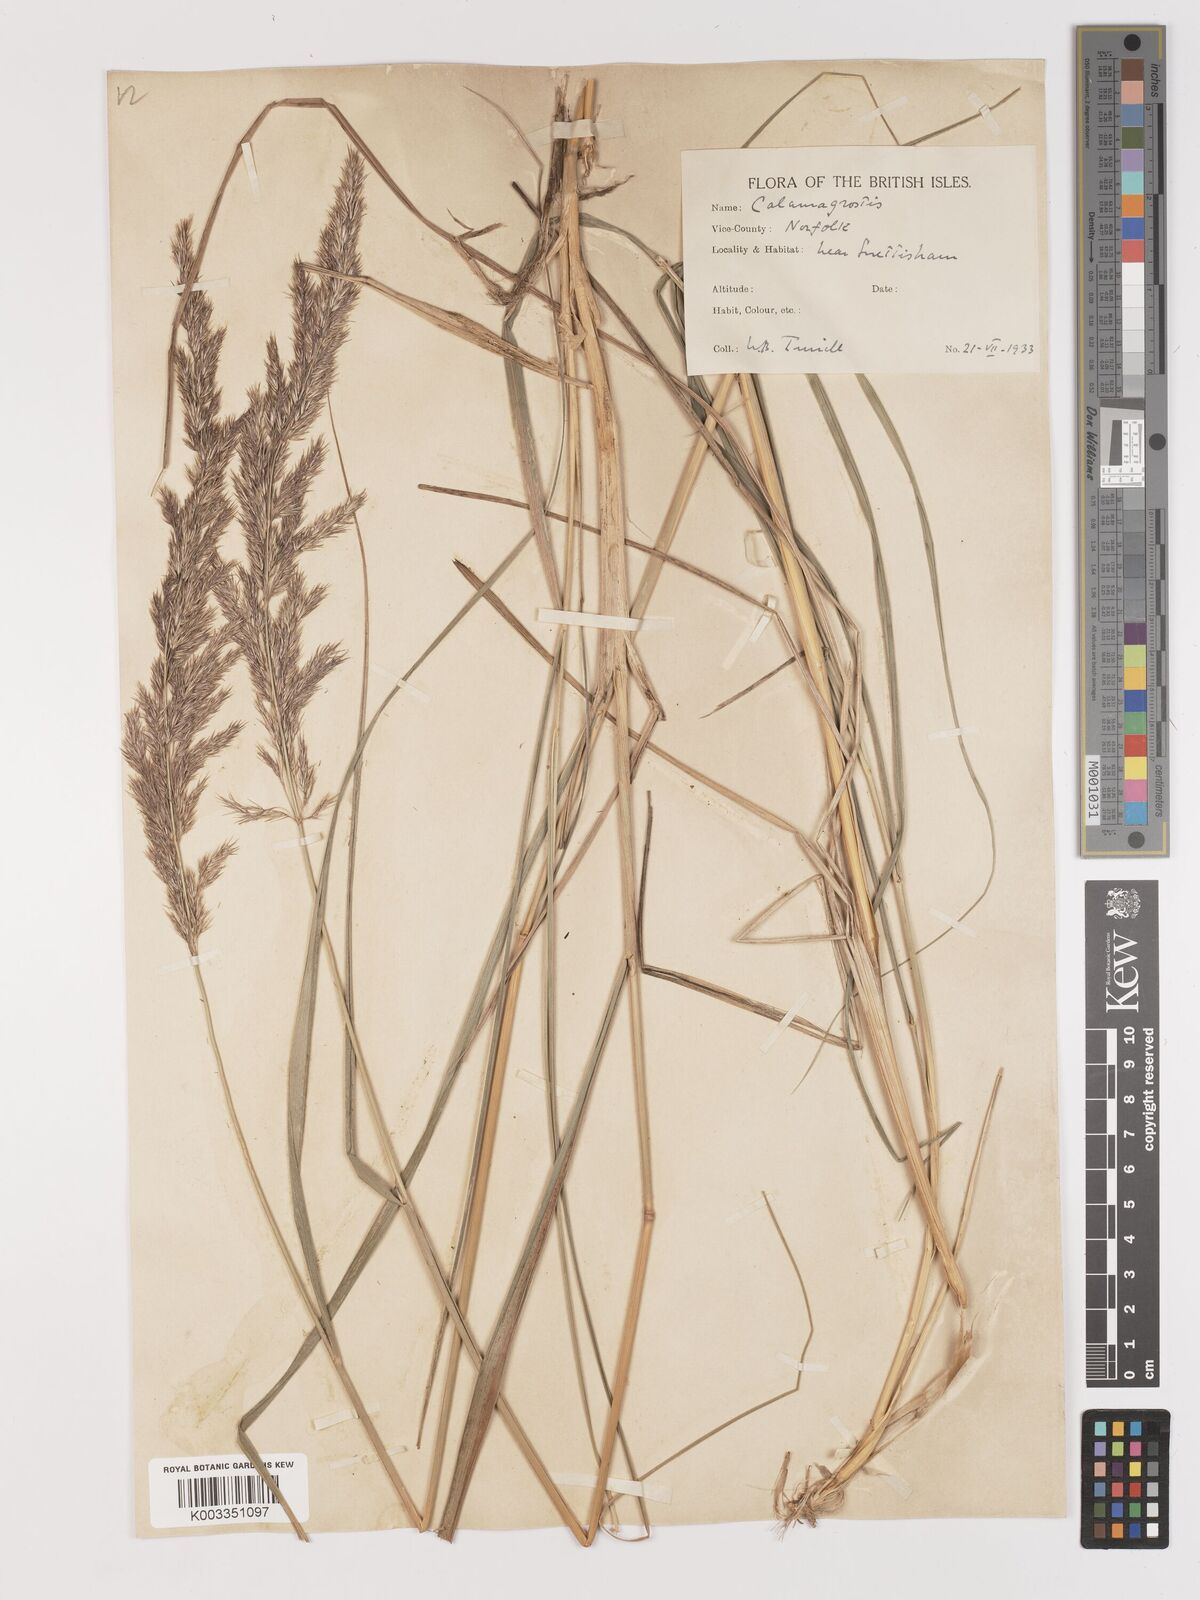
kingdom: Plantae
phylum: Tracheophyta
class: Liliopsida
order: Poales
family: Poaceae
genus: Calamagrostis
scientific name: Calamagrostis
